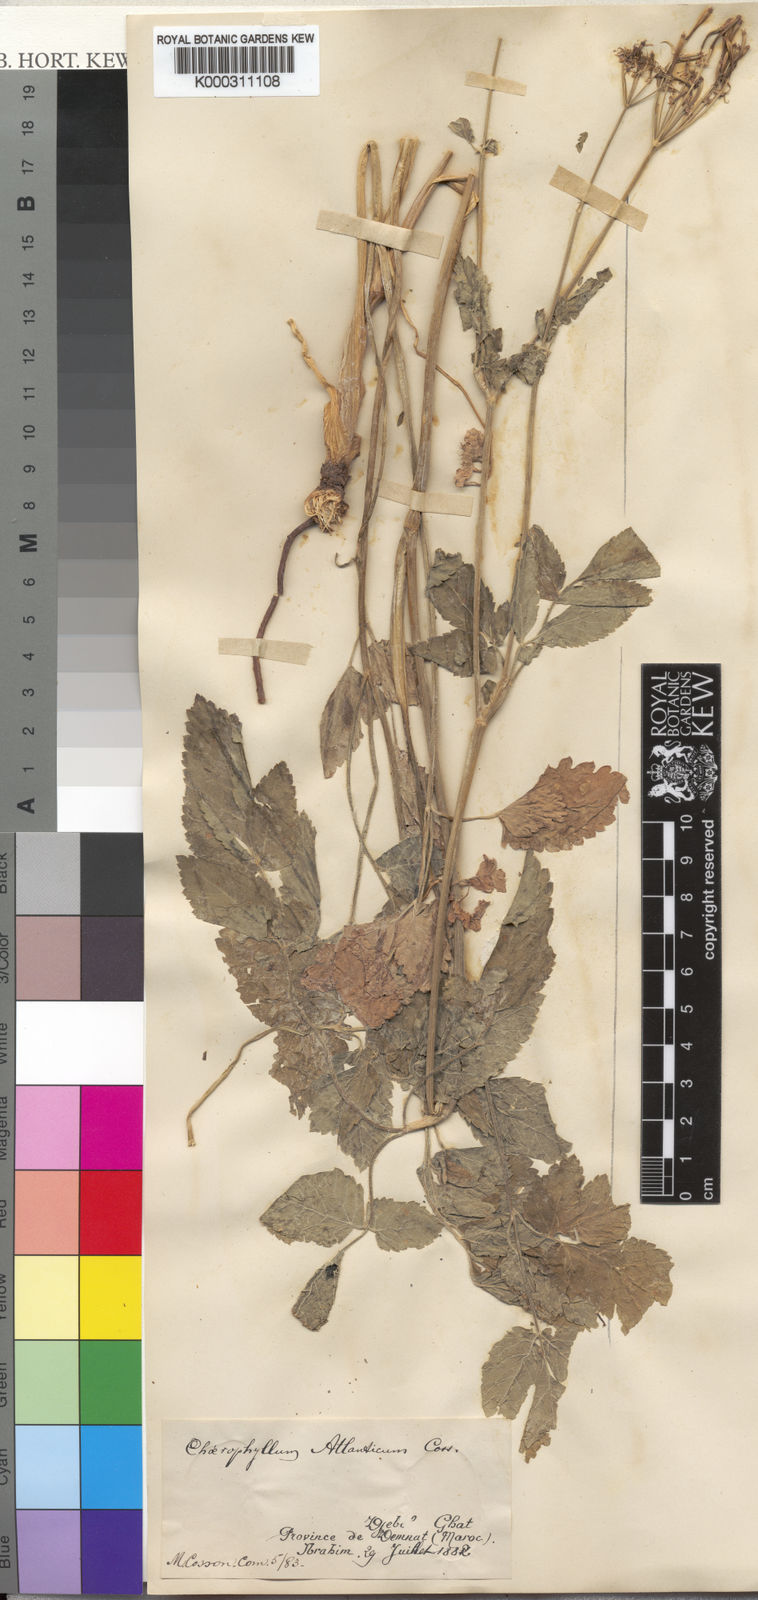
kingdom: Plantae
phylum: Tracheophyta
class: Magnoliopsida
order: Apiales
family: Apiaceae
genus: Chaerophyllum
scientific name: Chaerophyllum
